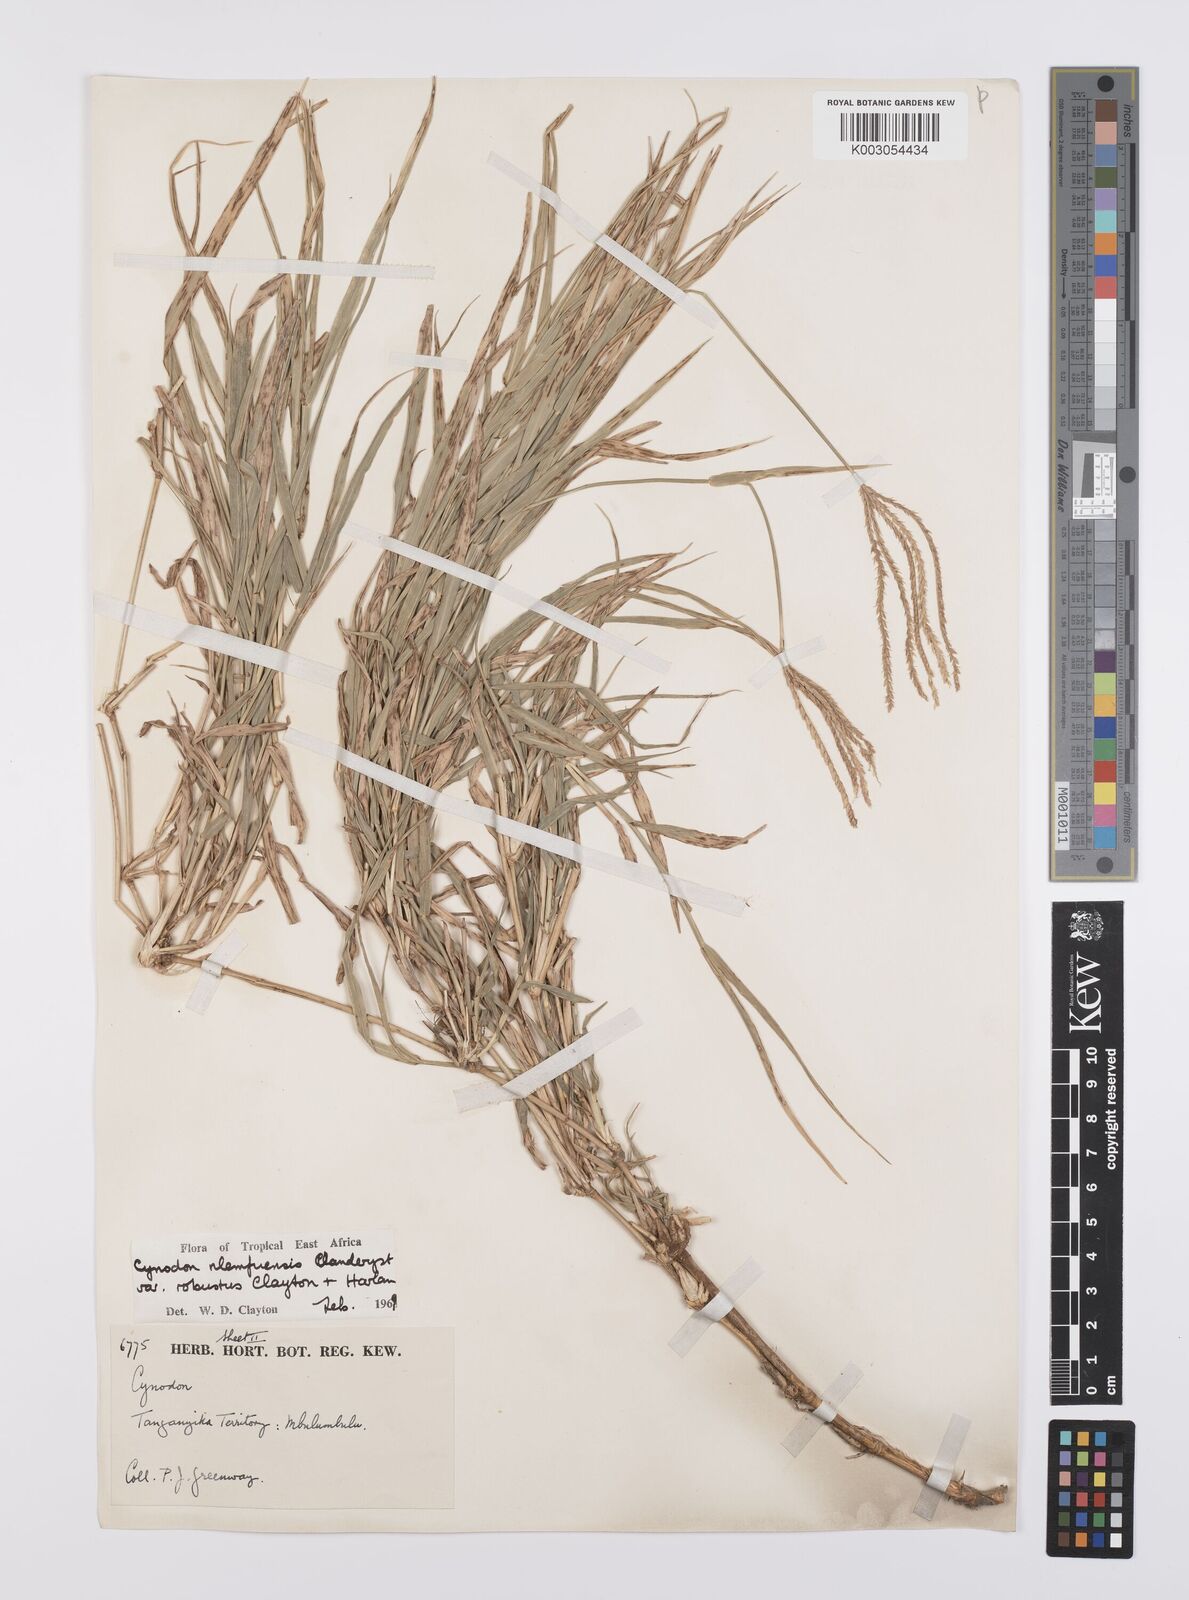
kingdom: Plantae
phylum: Tracheophyta
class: Liliopsida
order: Poales
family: Poaceae
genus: Cynodon
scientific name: Cynodon nlemfuensis
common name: African bermudagrass
